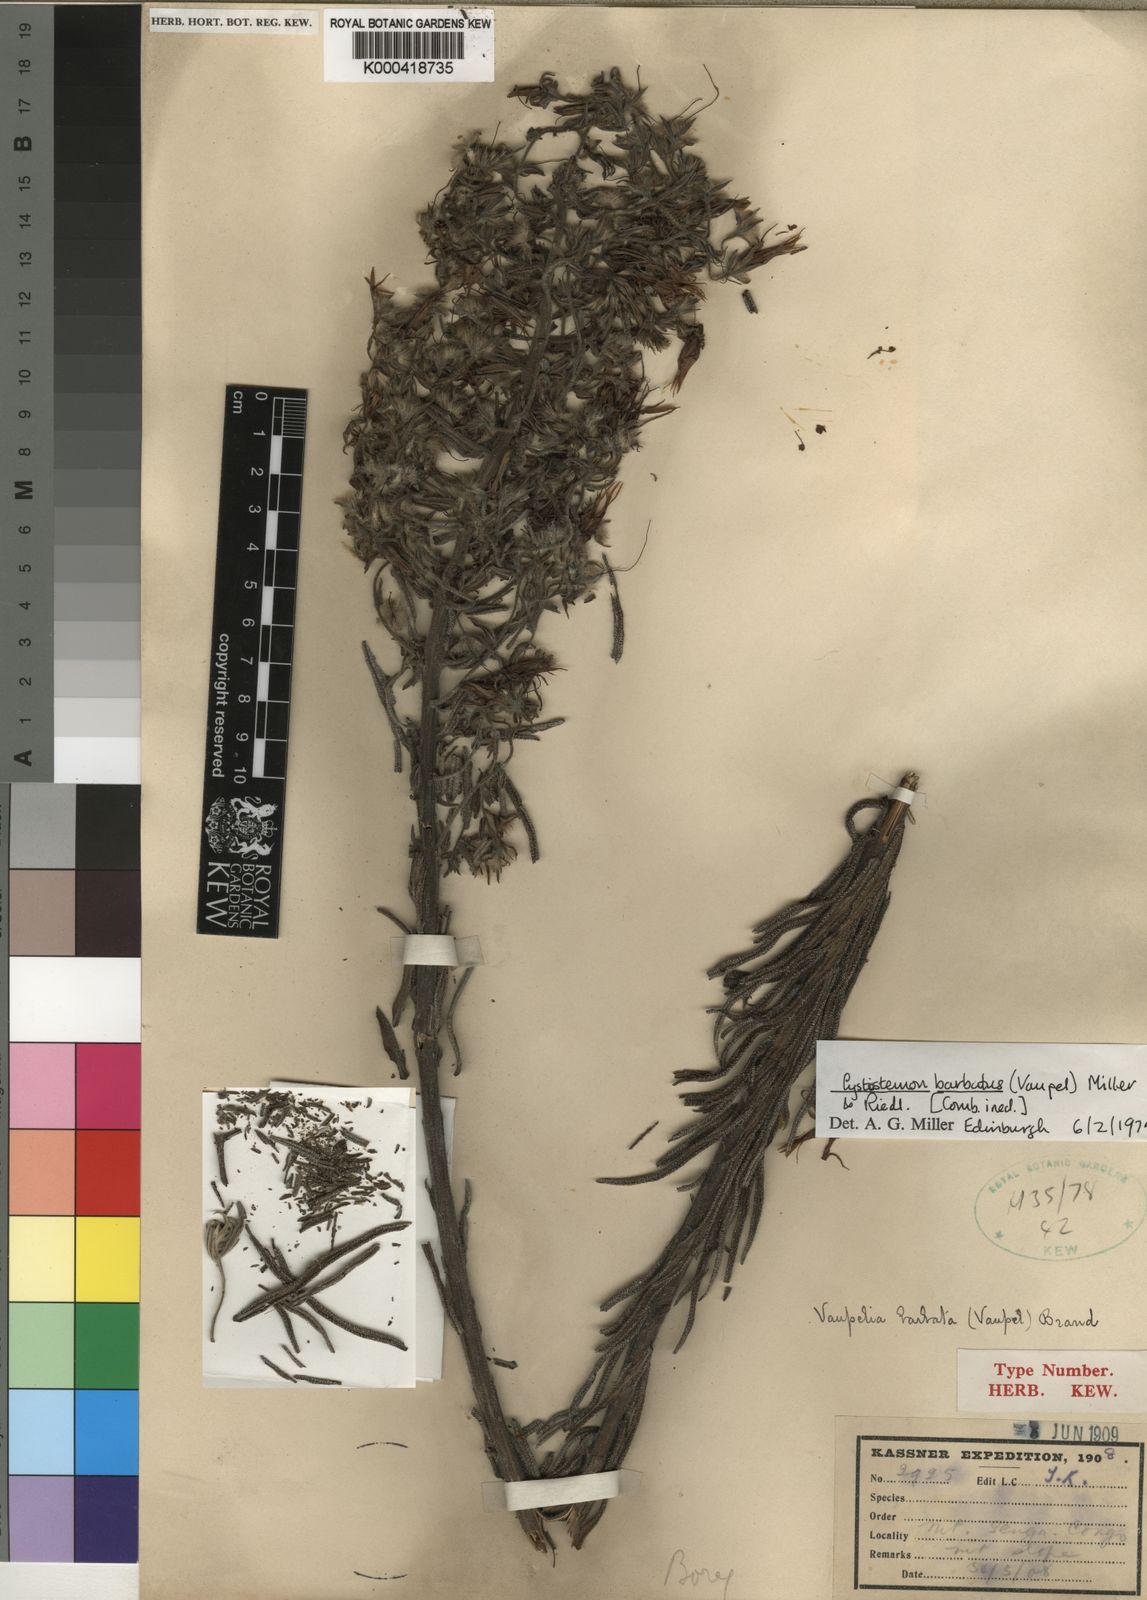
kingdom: Plantae
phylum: Tracheophyta
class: Magnoliopsida
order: Boraginales
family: Boraginaceae
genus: Cystostemon
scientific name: Cystostemon barbatus
